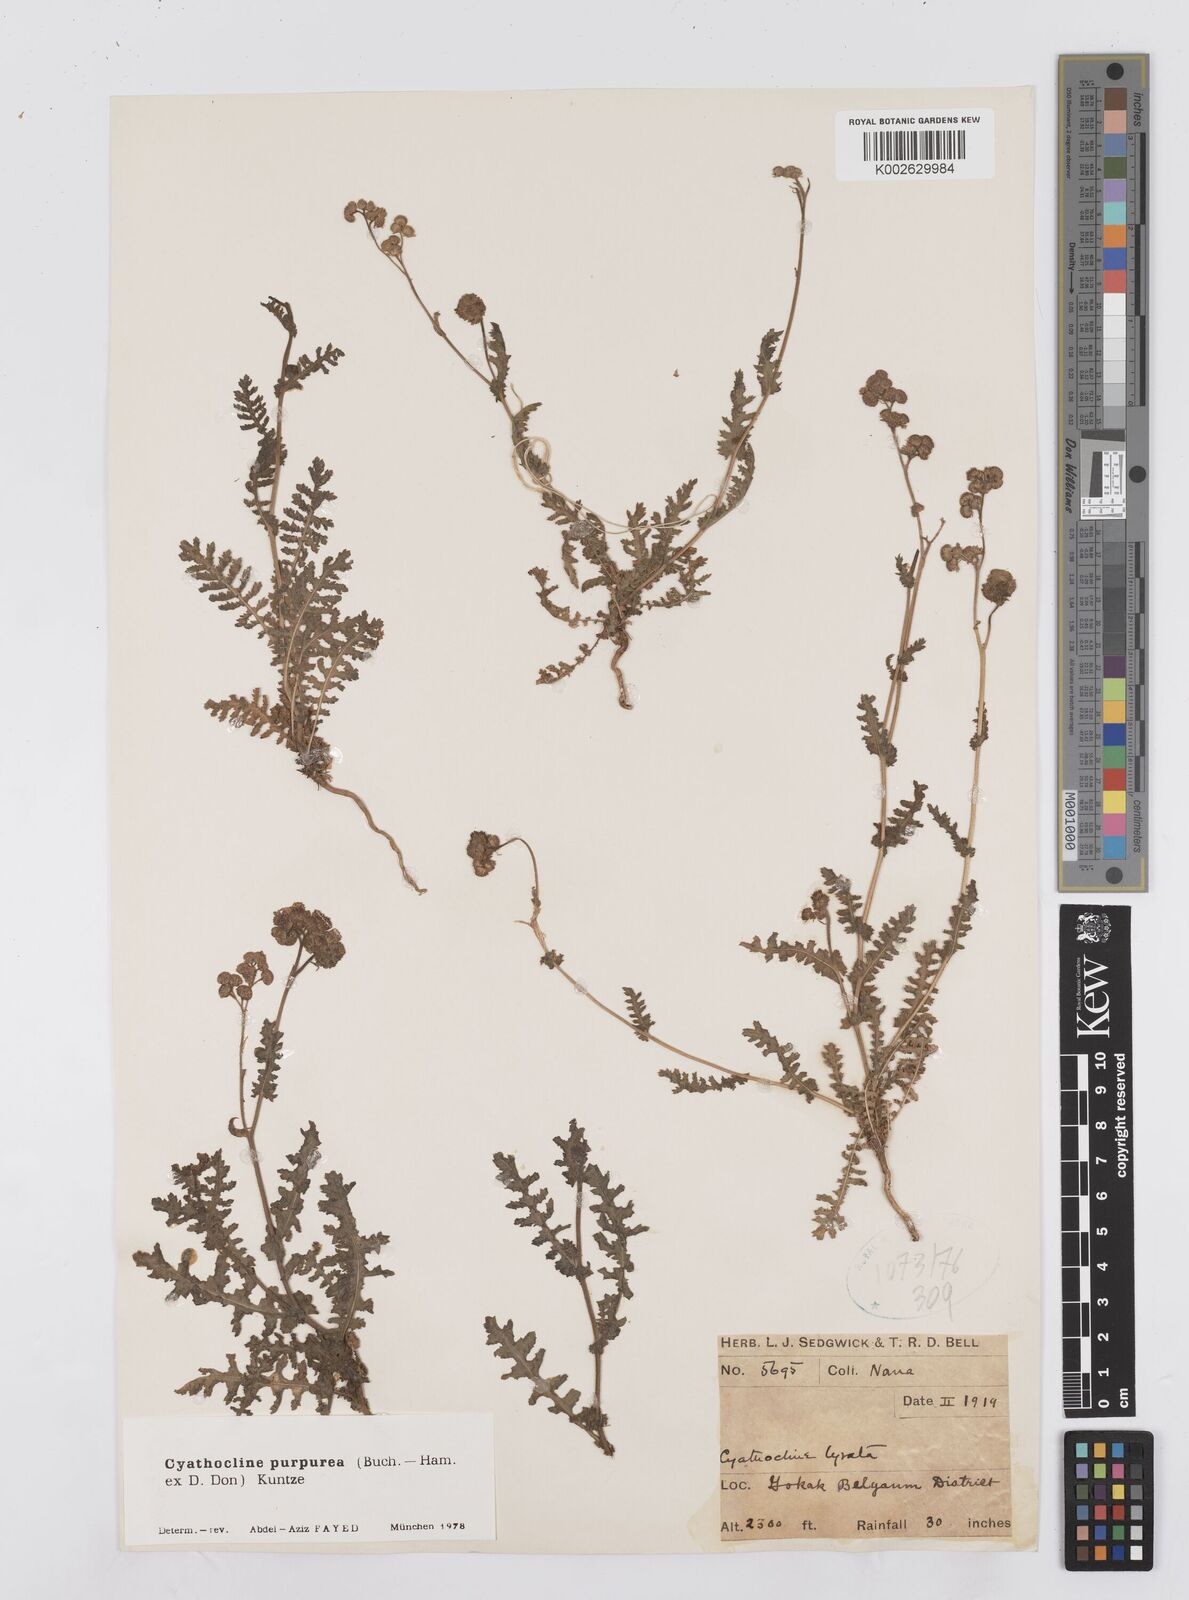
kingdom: Plantae
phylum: Tracheophyta
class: Magnoliopsida
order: Asterales
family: Asteraceae
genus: Cyathocline
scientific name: Cyathocline purpurea
